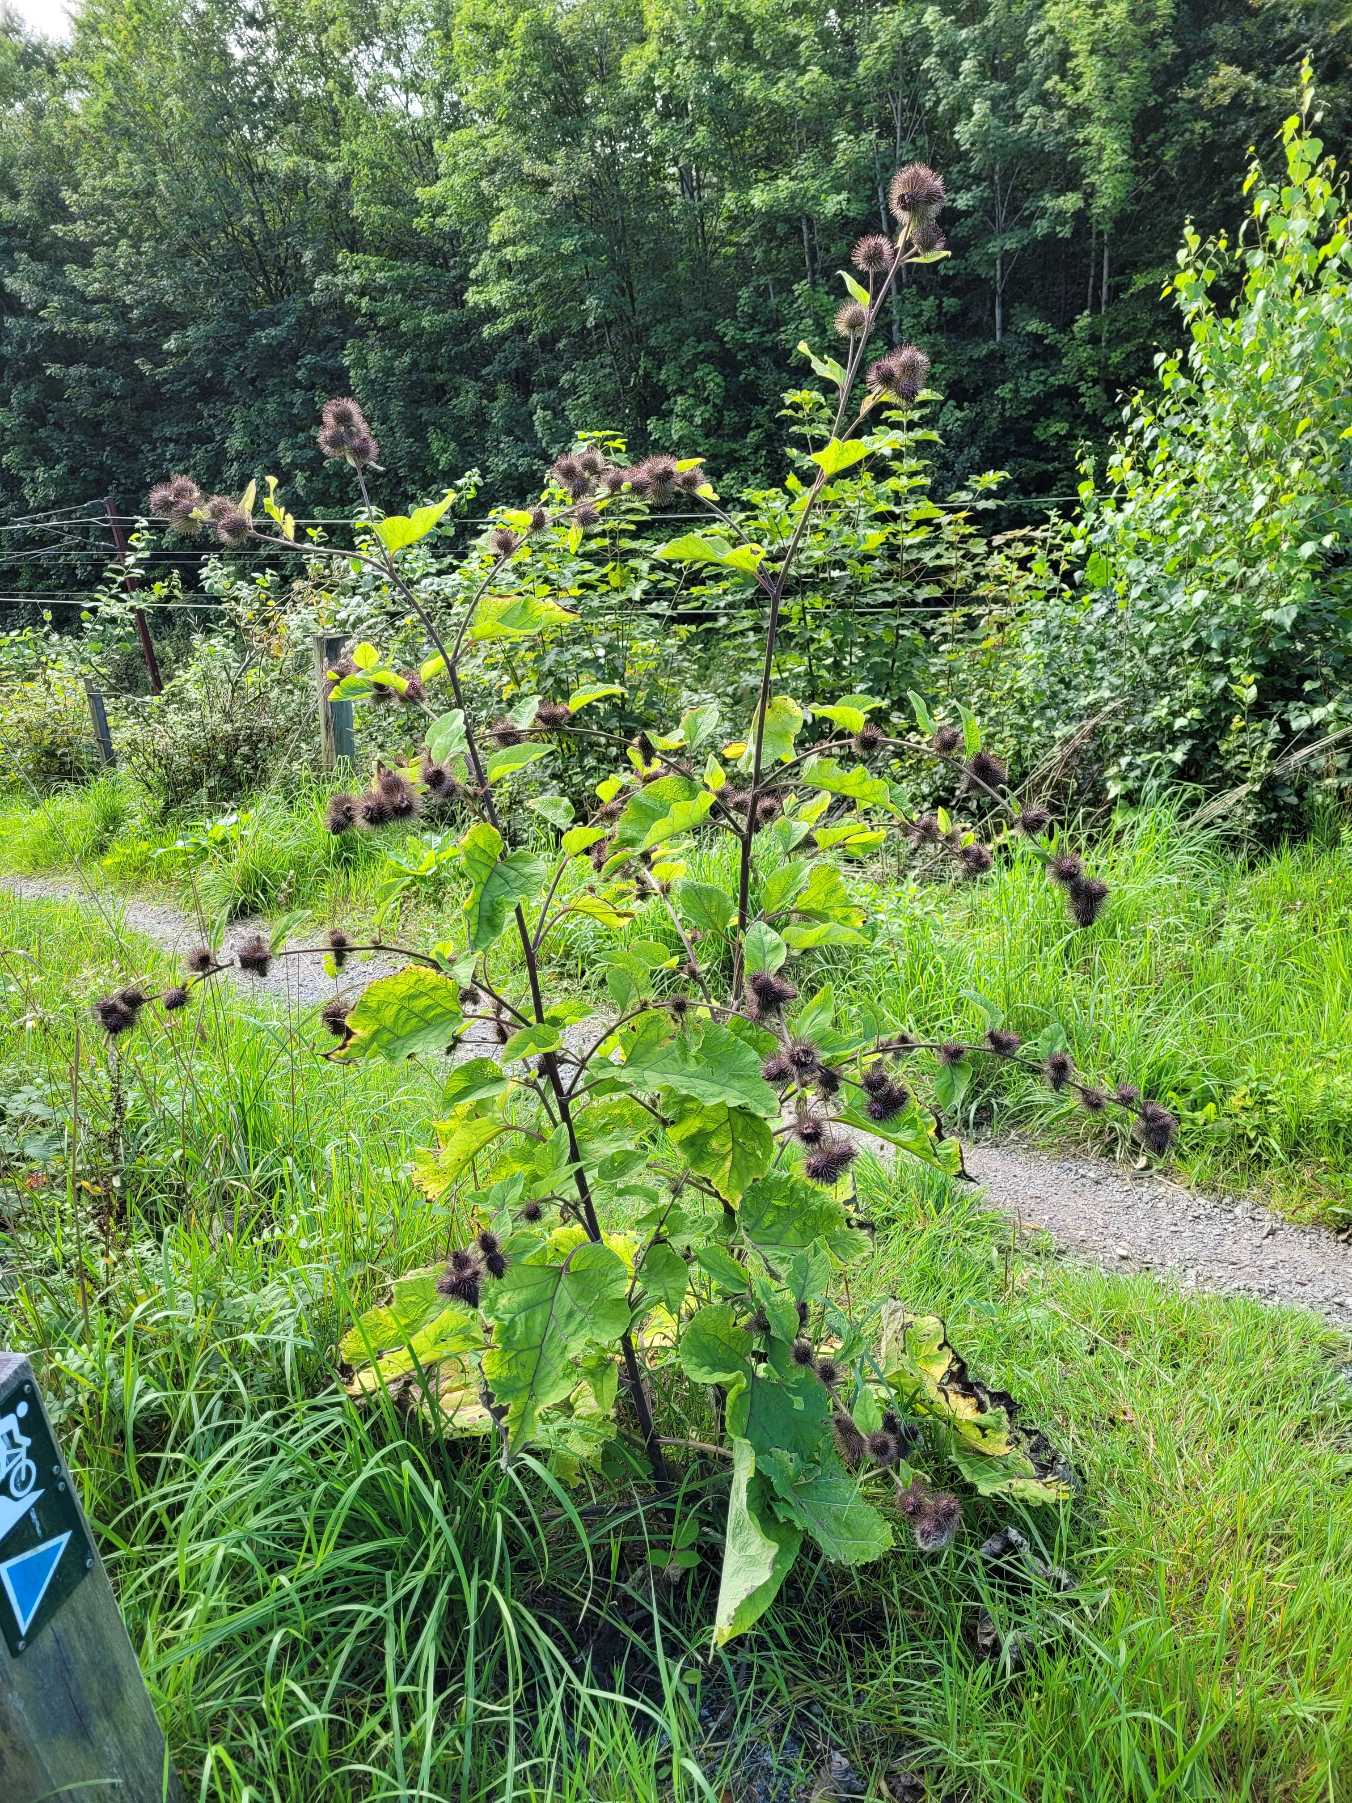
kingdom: Plantae
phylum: Tracheophyta
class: Magnoliopsida
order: Asterales
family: Asteraceae
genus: Arctium
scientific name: Arctium nemorosum
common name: Skov-burre
